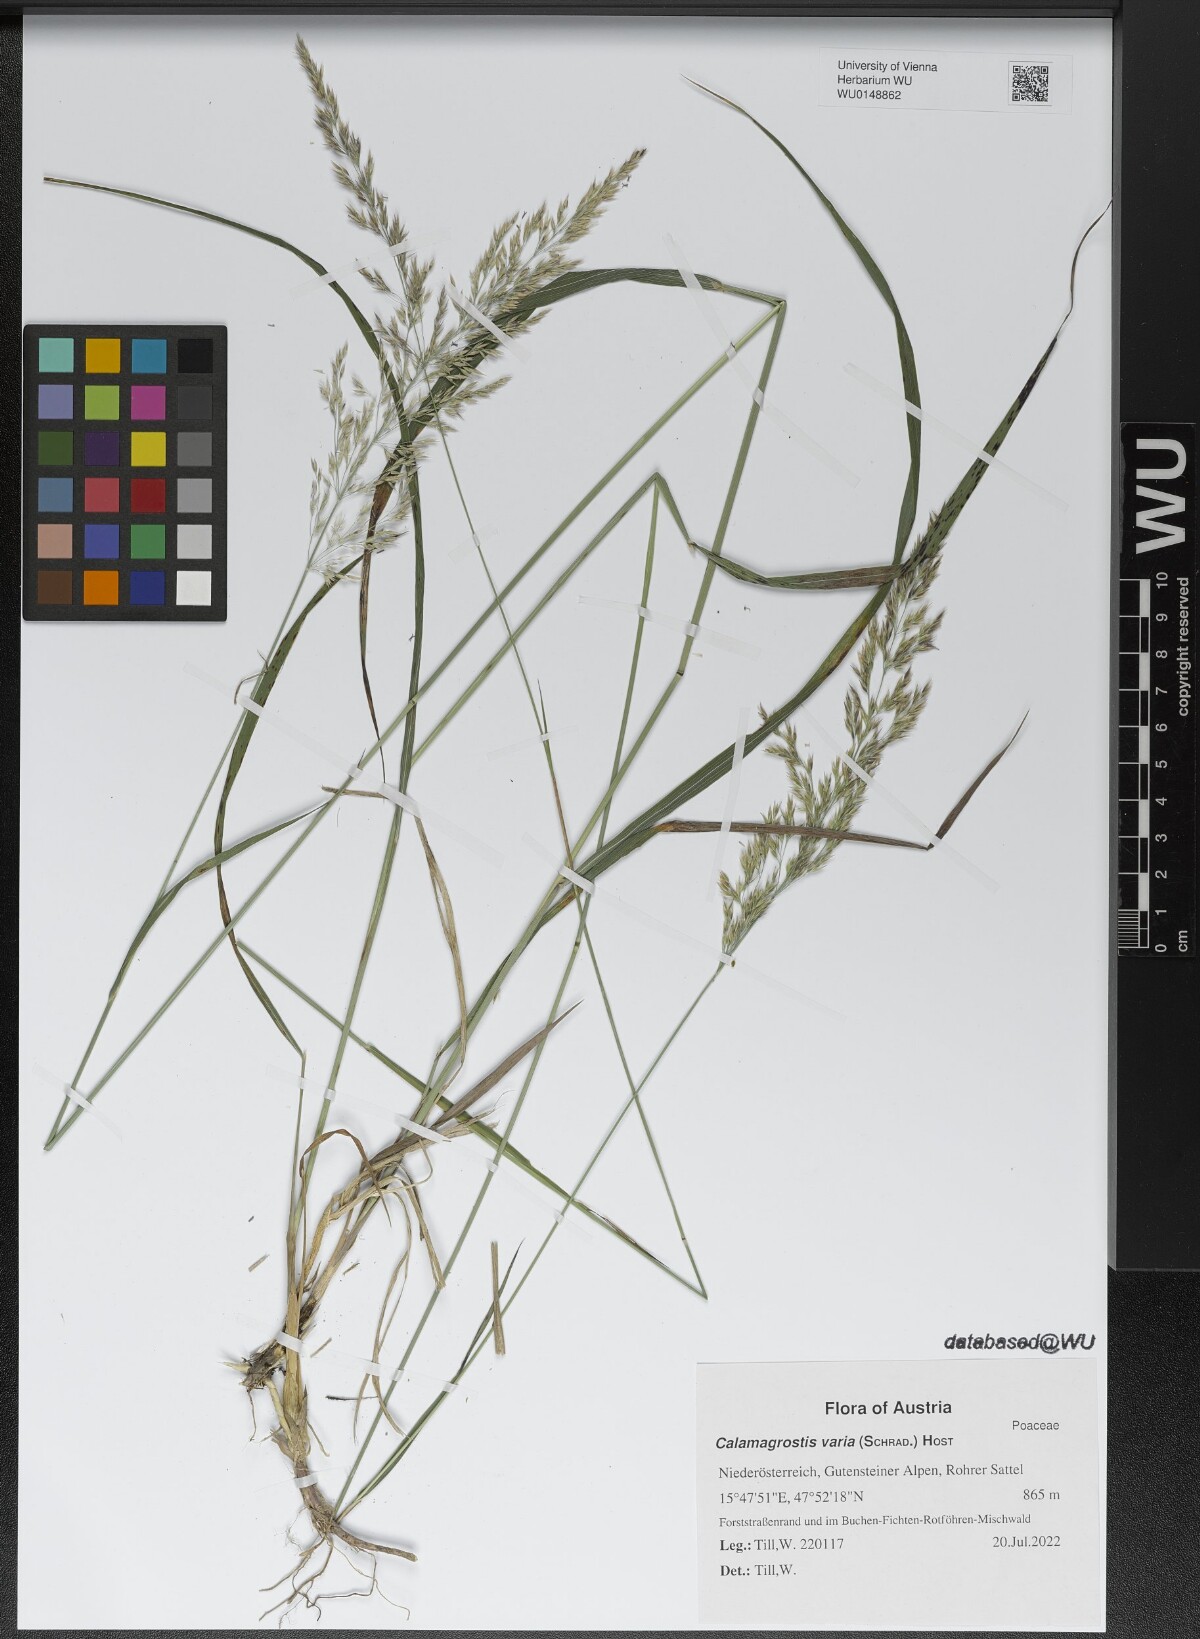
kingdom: Plantae
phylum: Tracheophyta
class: Liliopsida
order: Poales
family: Poaceae
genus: Calamagrostis
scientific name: Calamagrostis varia
